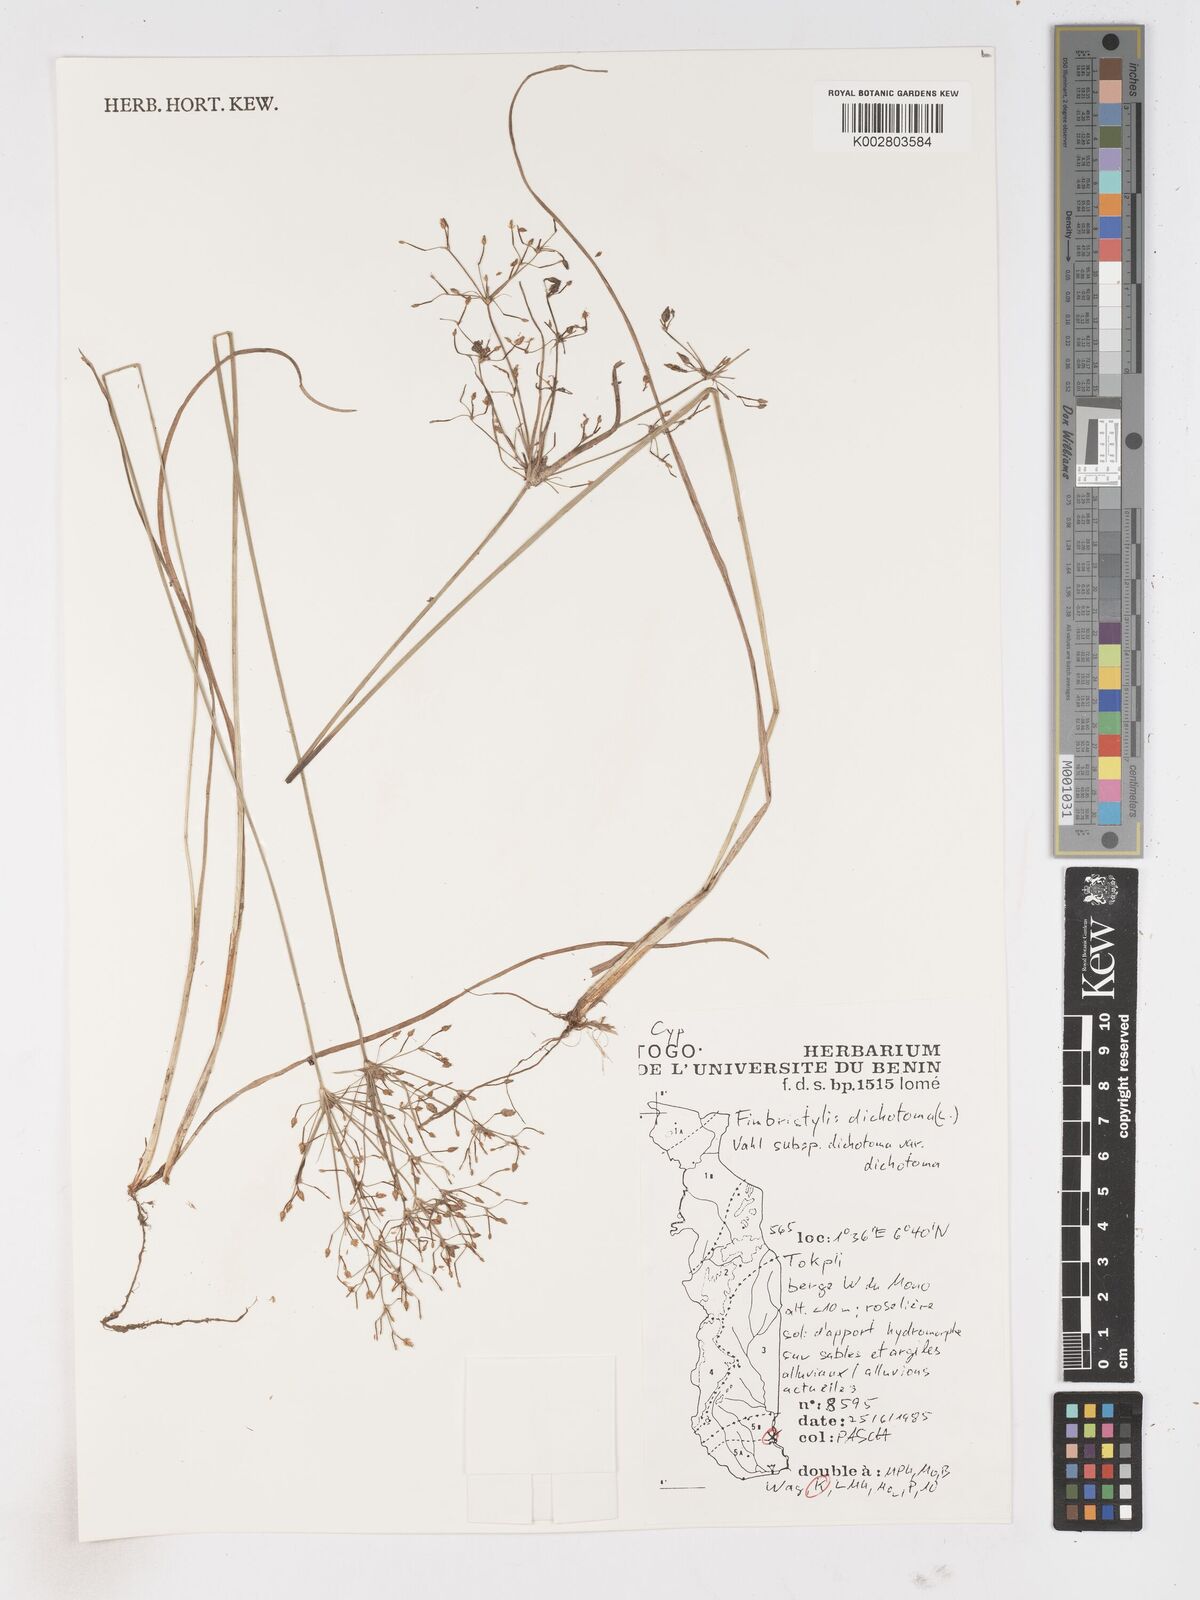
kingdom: Plantae
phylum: Tracheophyta
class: Liliopsida
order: Poales
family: Cyperaceae
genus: Fimbristylis
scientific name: Fimbristylis dichotoma
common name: Forked fimbry
